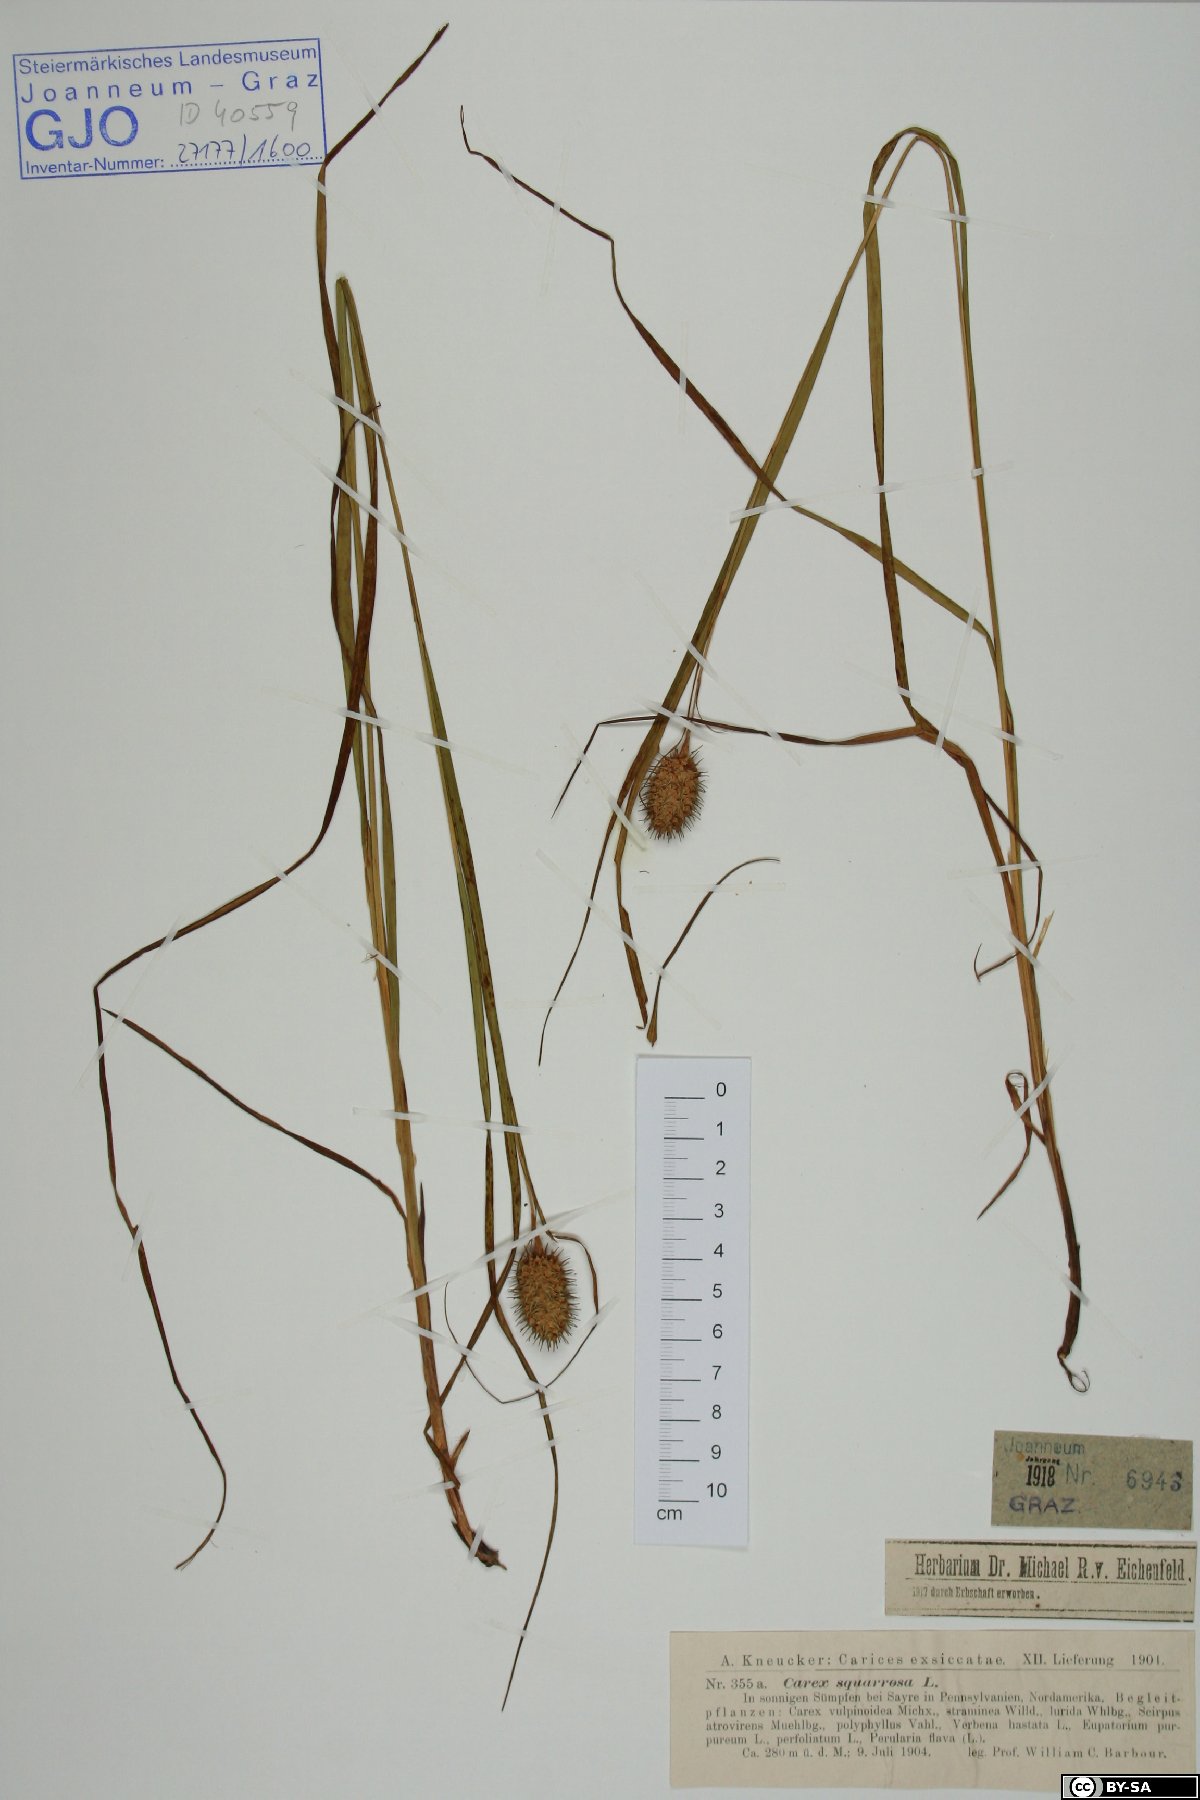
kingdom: Plantae
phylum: Tracheophyta
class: Liliopsida
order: Poales
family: Cyperaceae
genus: Carex
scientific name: Carex squarrosa
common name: Narrow-leaved cattail sedge
